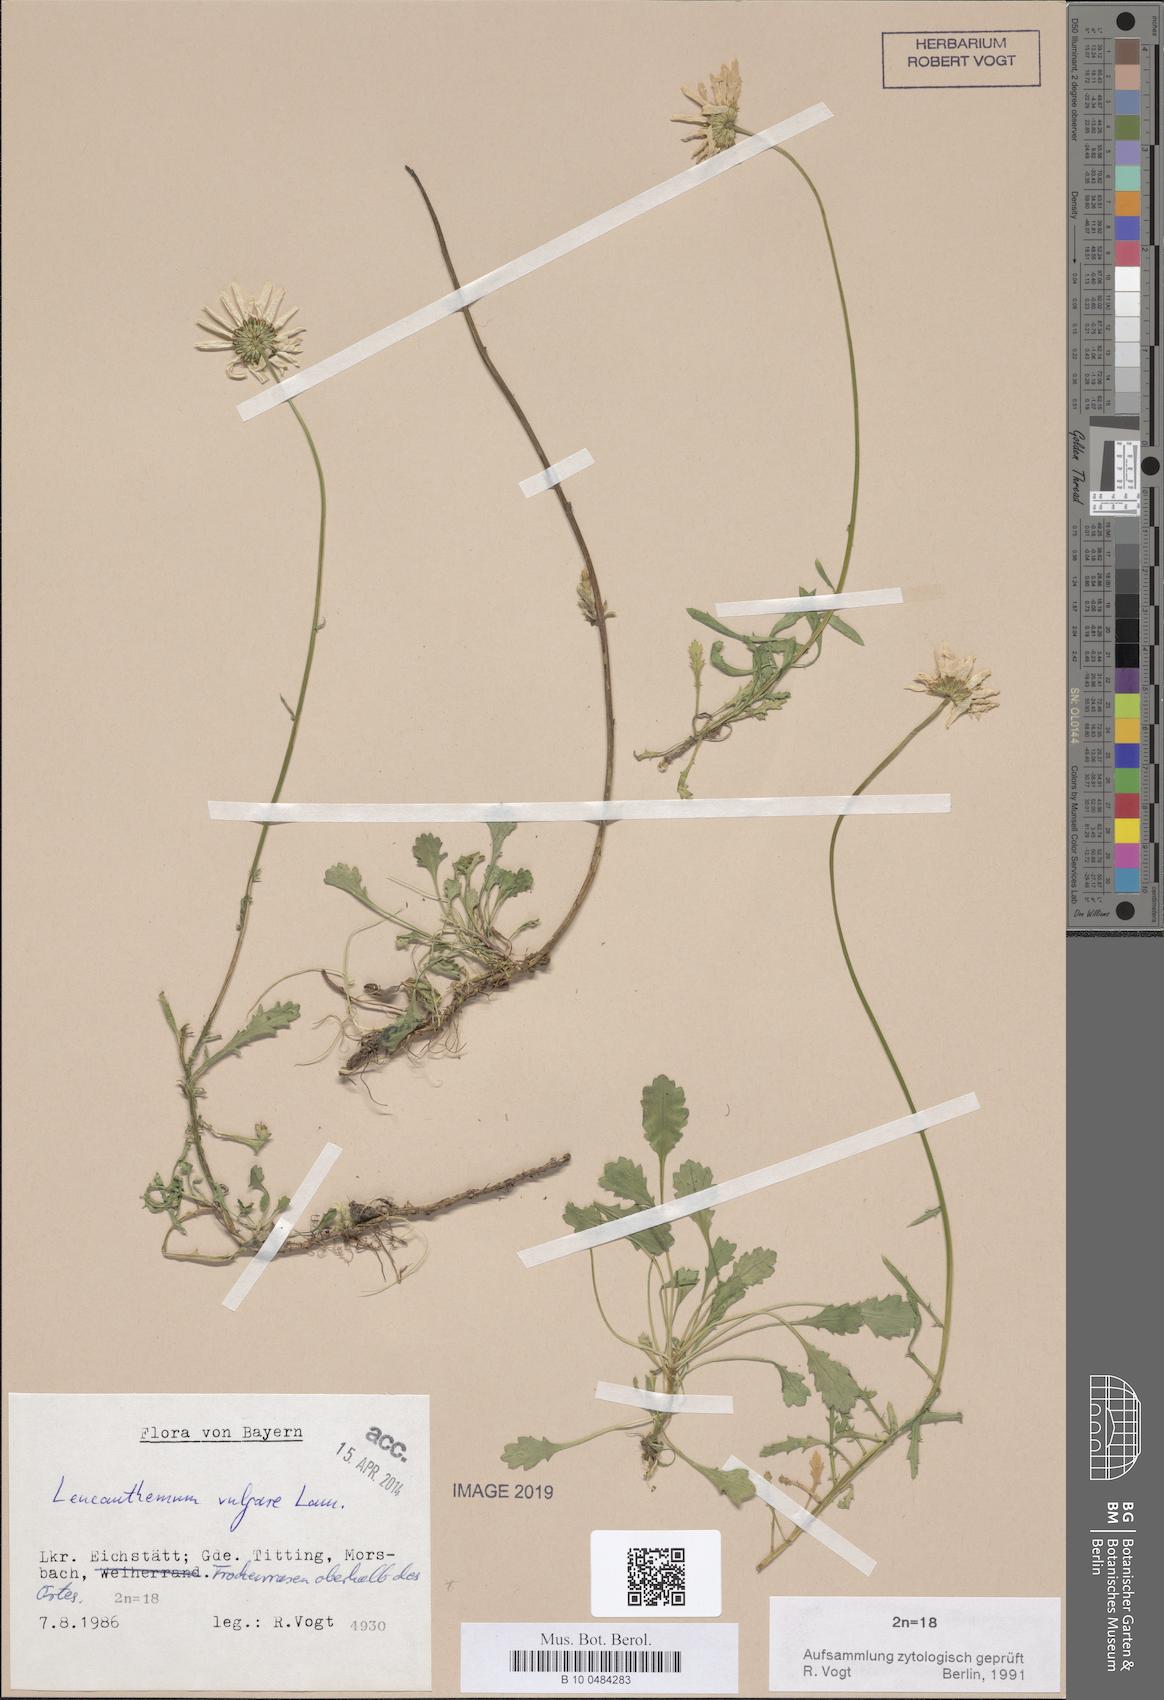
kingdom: Plantae
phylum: Tracheophyta
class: Magnoliopsida
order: Asterales
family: Asteraceae
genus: Leucanthemum
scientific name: Leucanthemum vulgare
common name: Oxeye daisy
